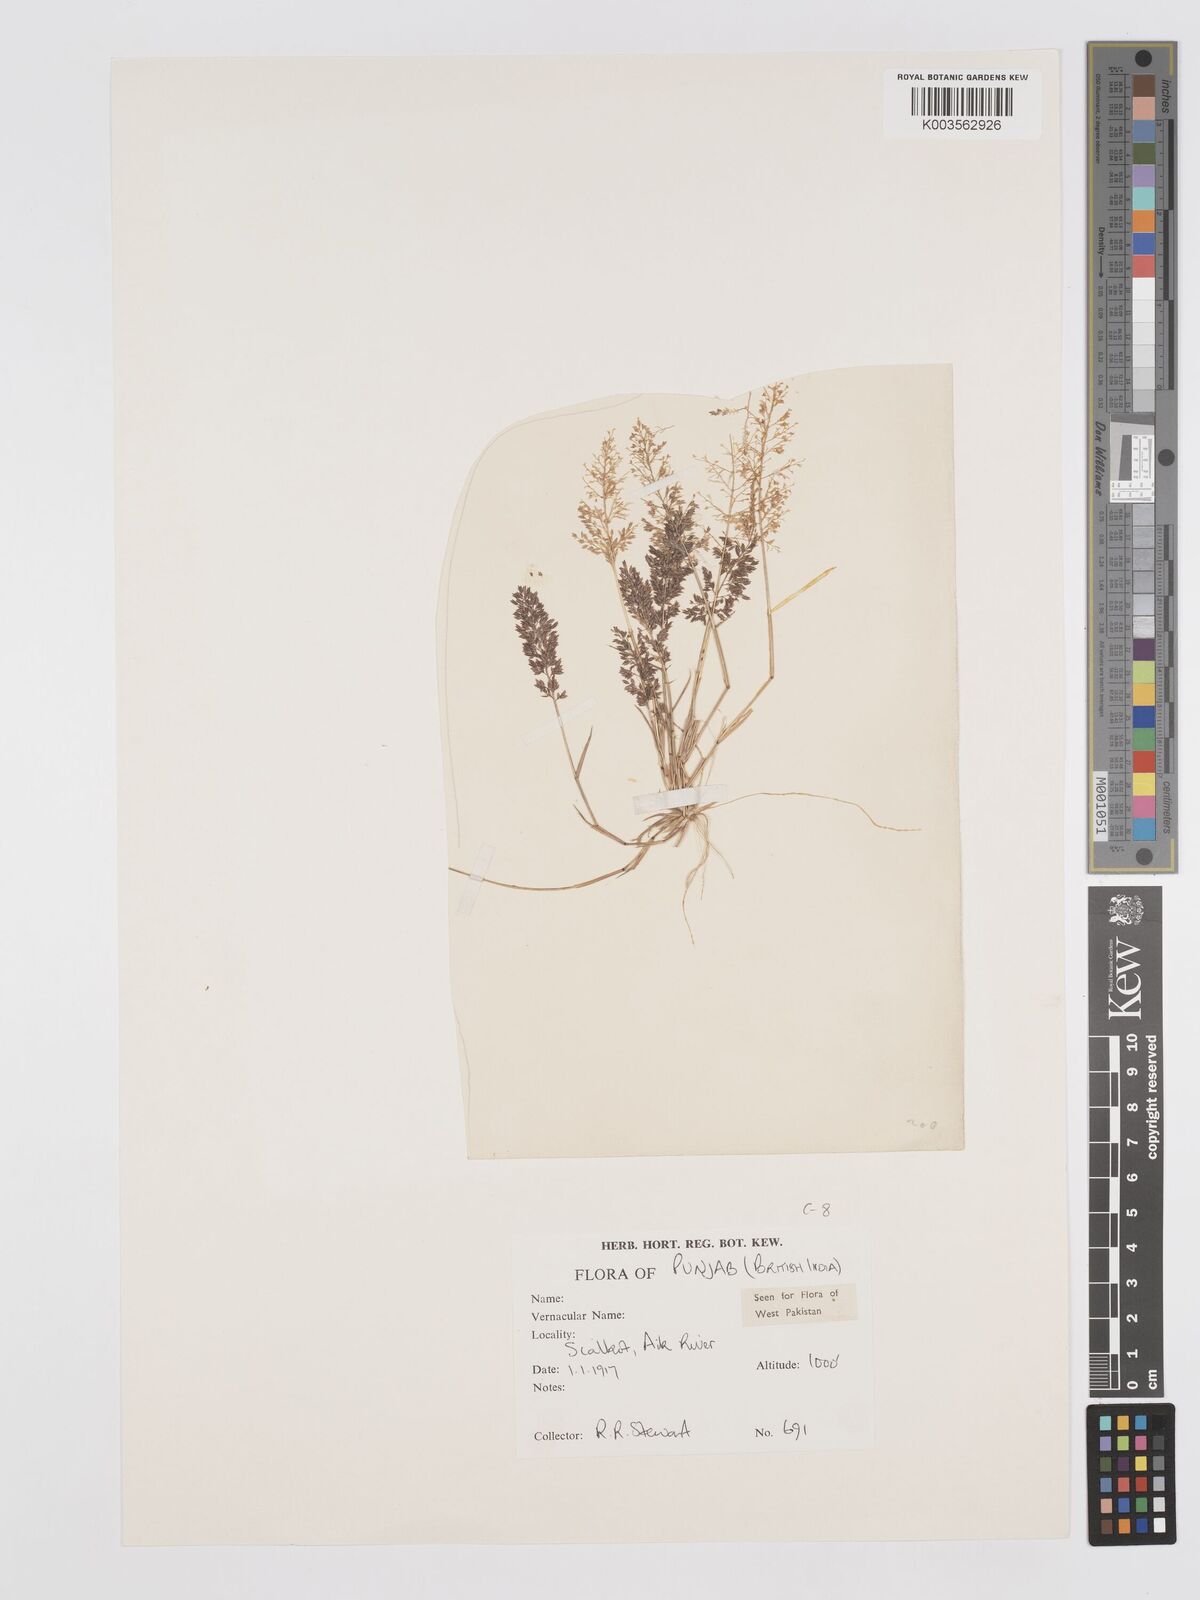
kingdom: Plantae
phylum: Tracheophyta
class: Liliopsida
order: Poales
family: Poaceae
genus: Eragrostis
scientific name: Eragrostis japonica
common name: Pond lovegrass
